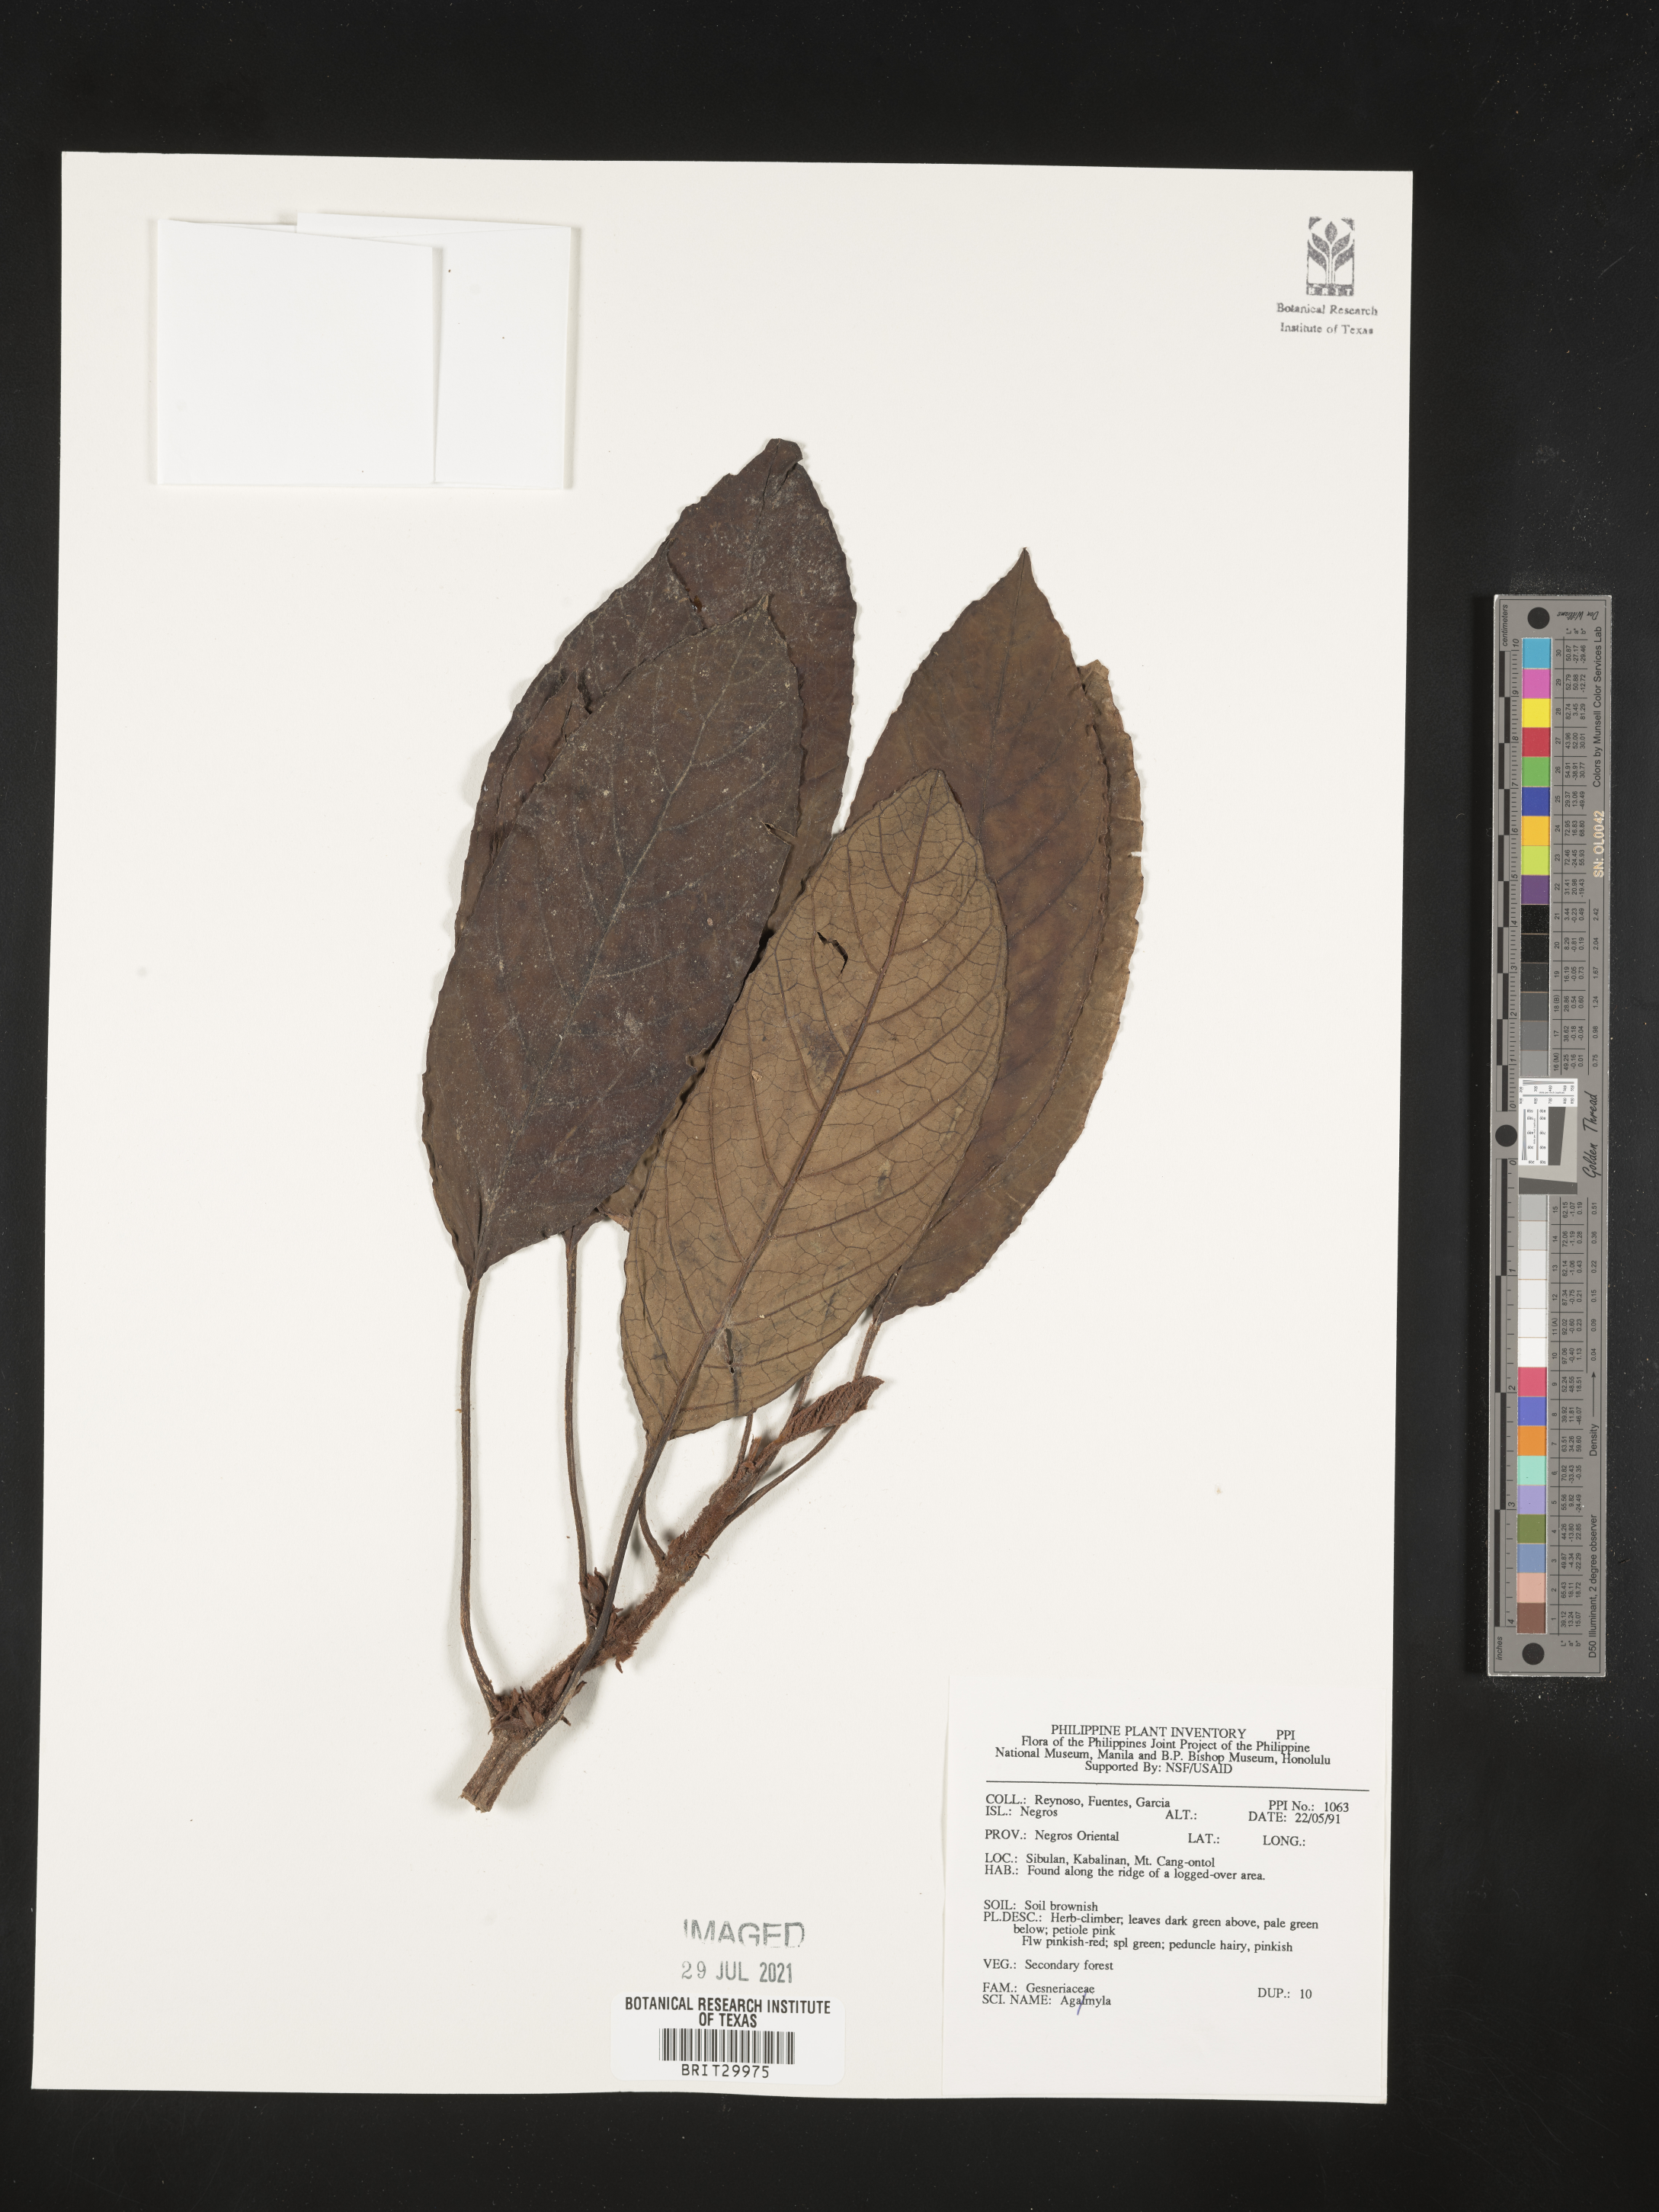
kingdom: Plantae
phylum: Tracheophyta
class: Magnoliopsida
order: Lamiales
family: Gesneriaceae
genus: Agalmyla
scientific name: Agalmyla
